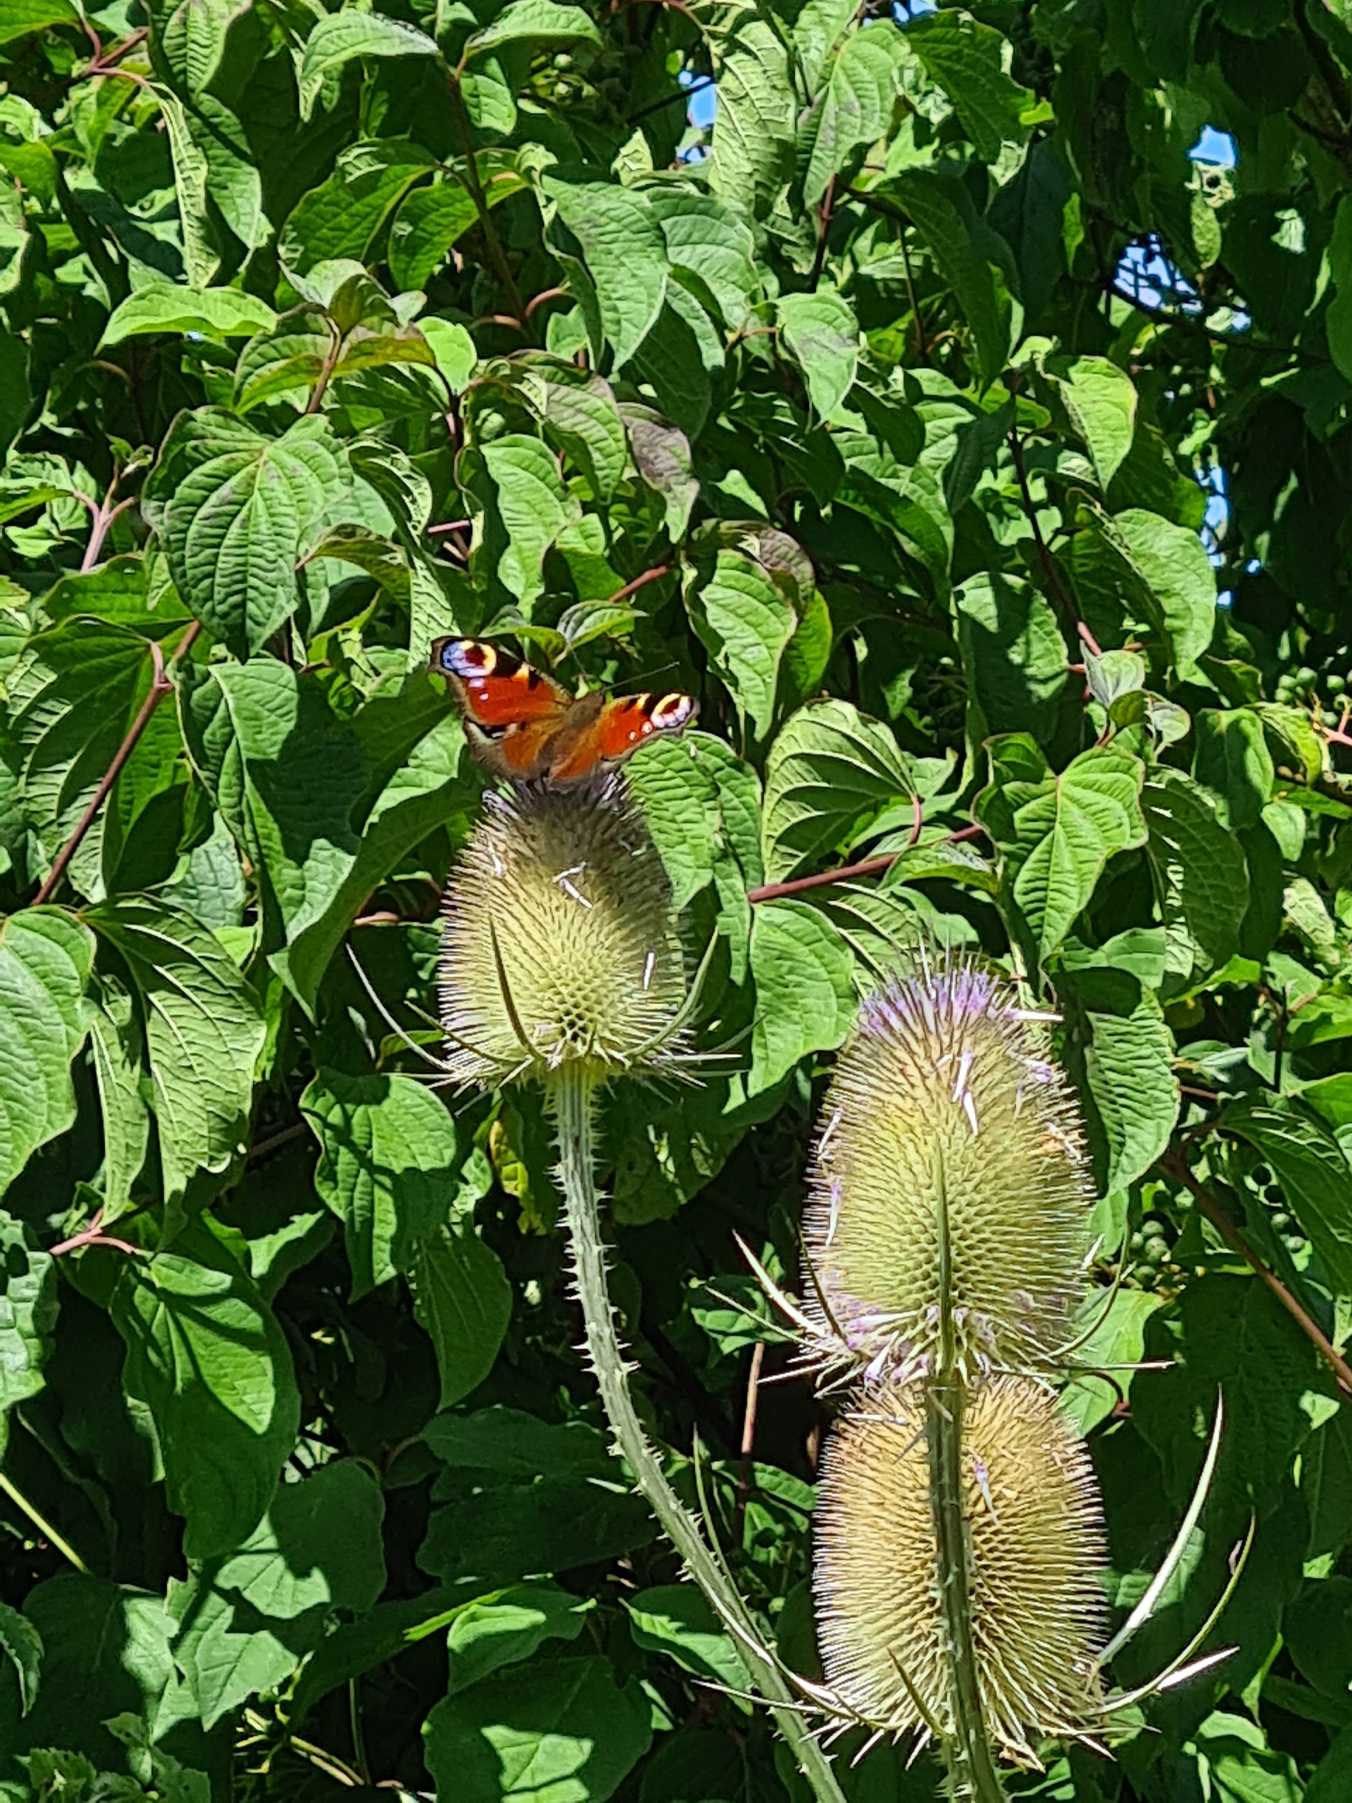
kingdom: Animalia
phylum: Arthropoda
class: Insecta
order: Lepidoptera
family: Nymphalidae
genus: Aglais
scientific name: Aglais io
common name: Dagpåfugleøje
